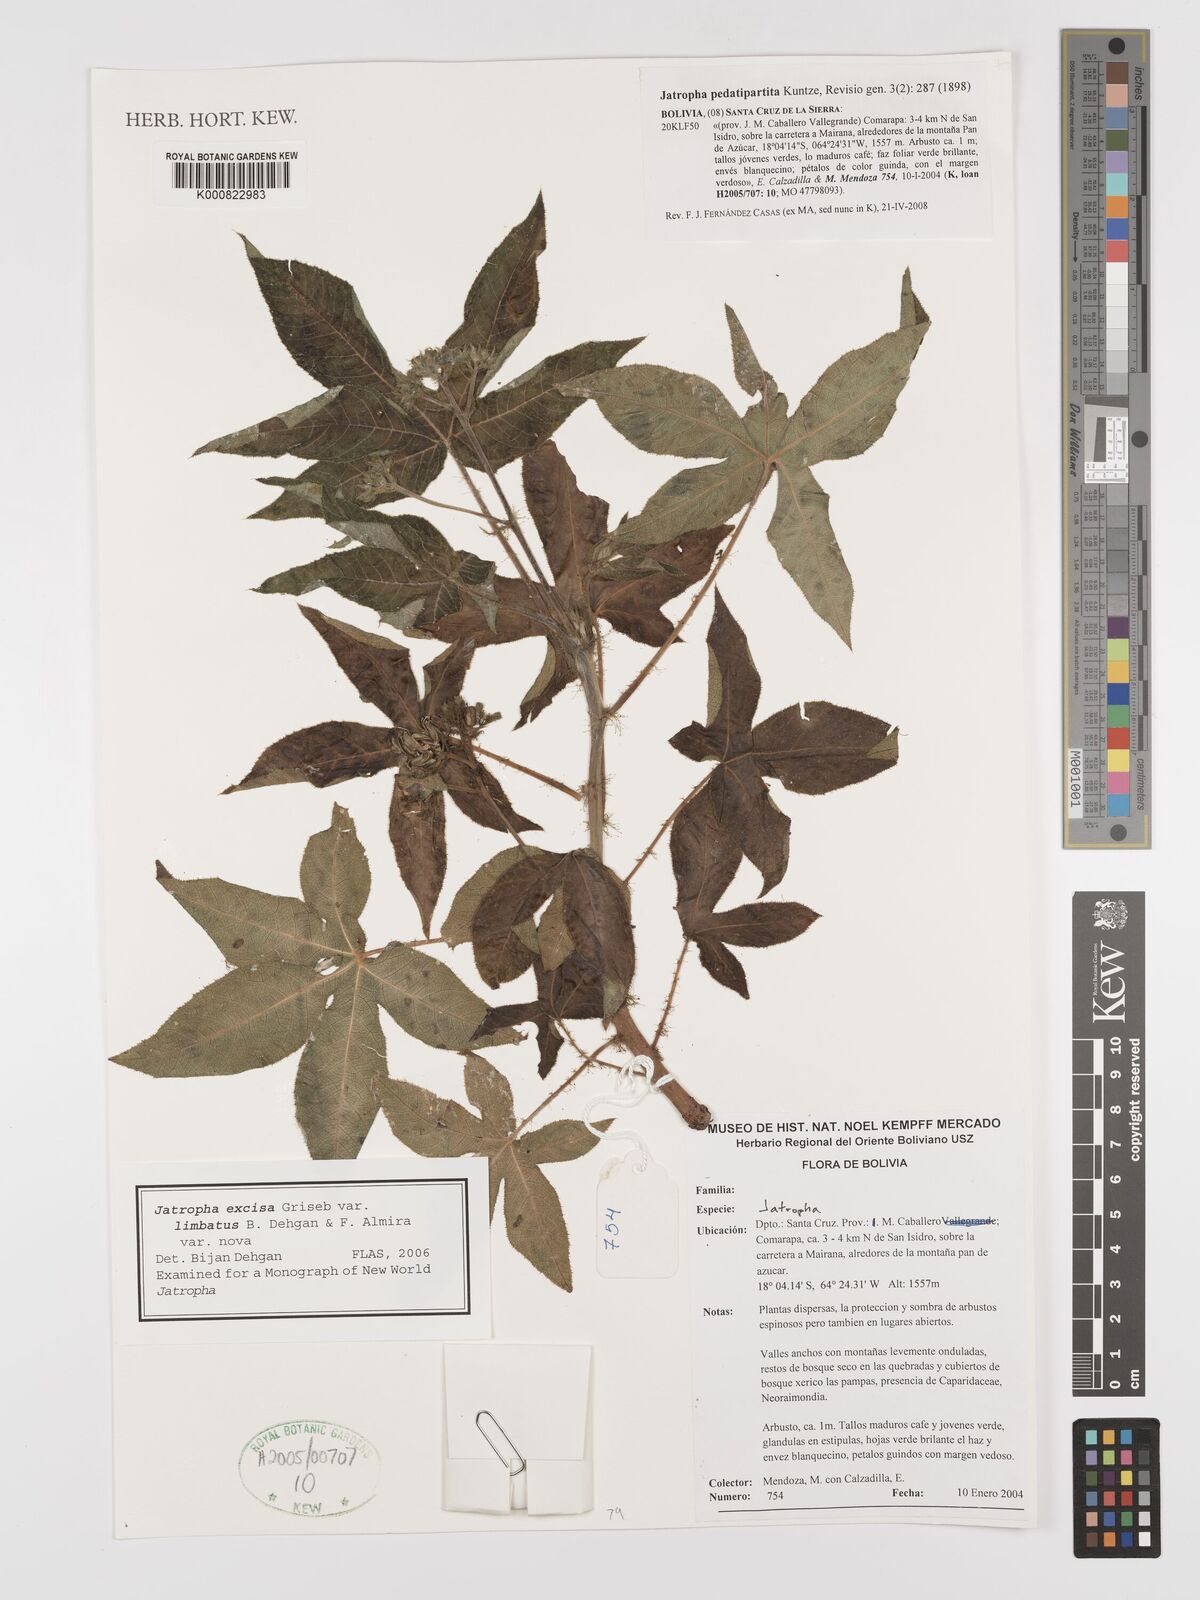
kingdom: Plantae
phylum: Tracheophyta
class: Magnoliopsida
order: Malpighiales
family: Euphorbiaceae
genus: Jatropha
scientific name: Jatropha clavuligera
